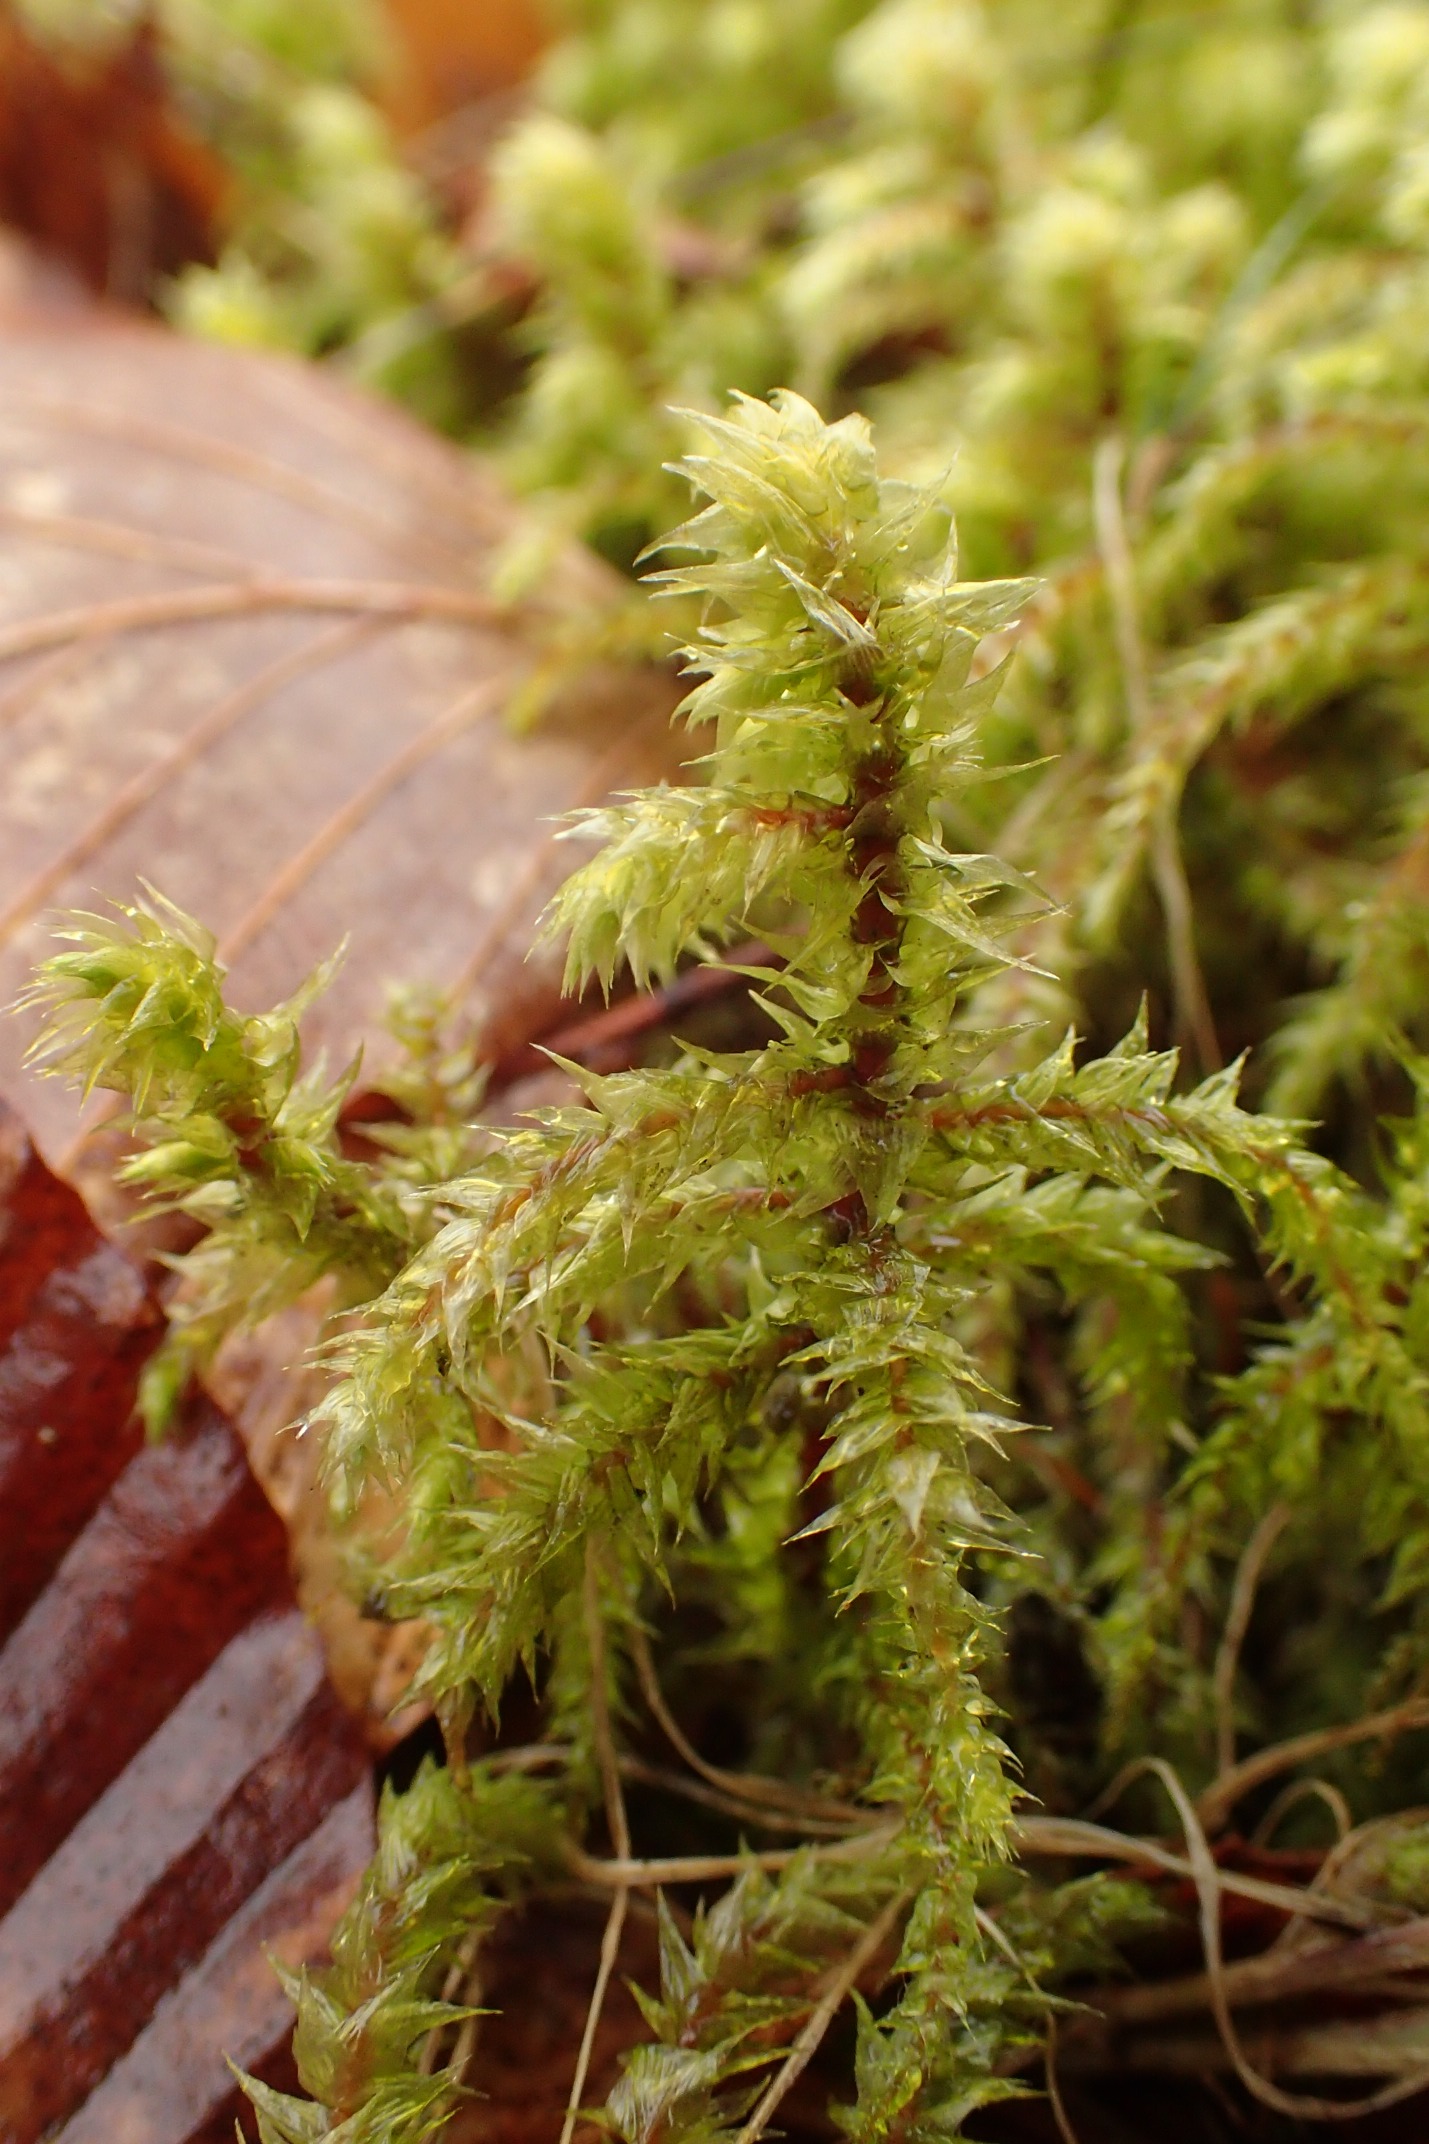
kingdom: Plantae
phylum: Bryophyta
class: Bryopsida
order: Hypnales
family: Hylocomiaceae
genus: Hylocomiadelphus
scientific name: Hylocomiadelphus triquetrus
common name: Stor kransemos
